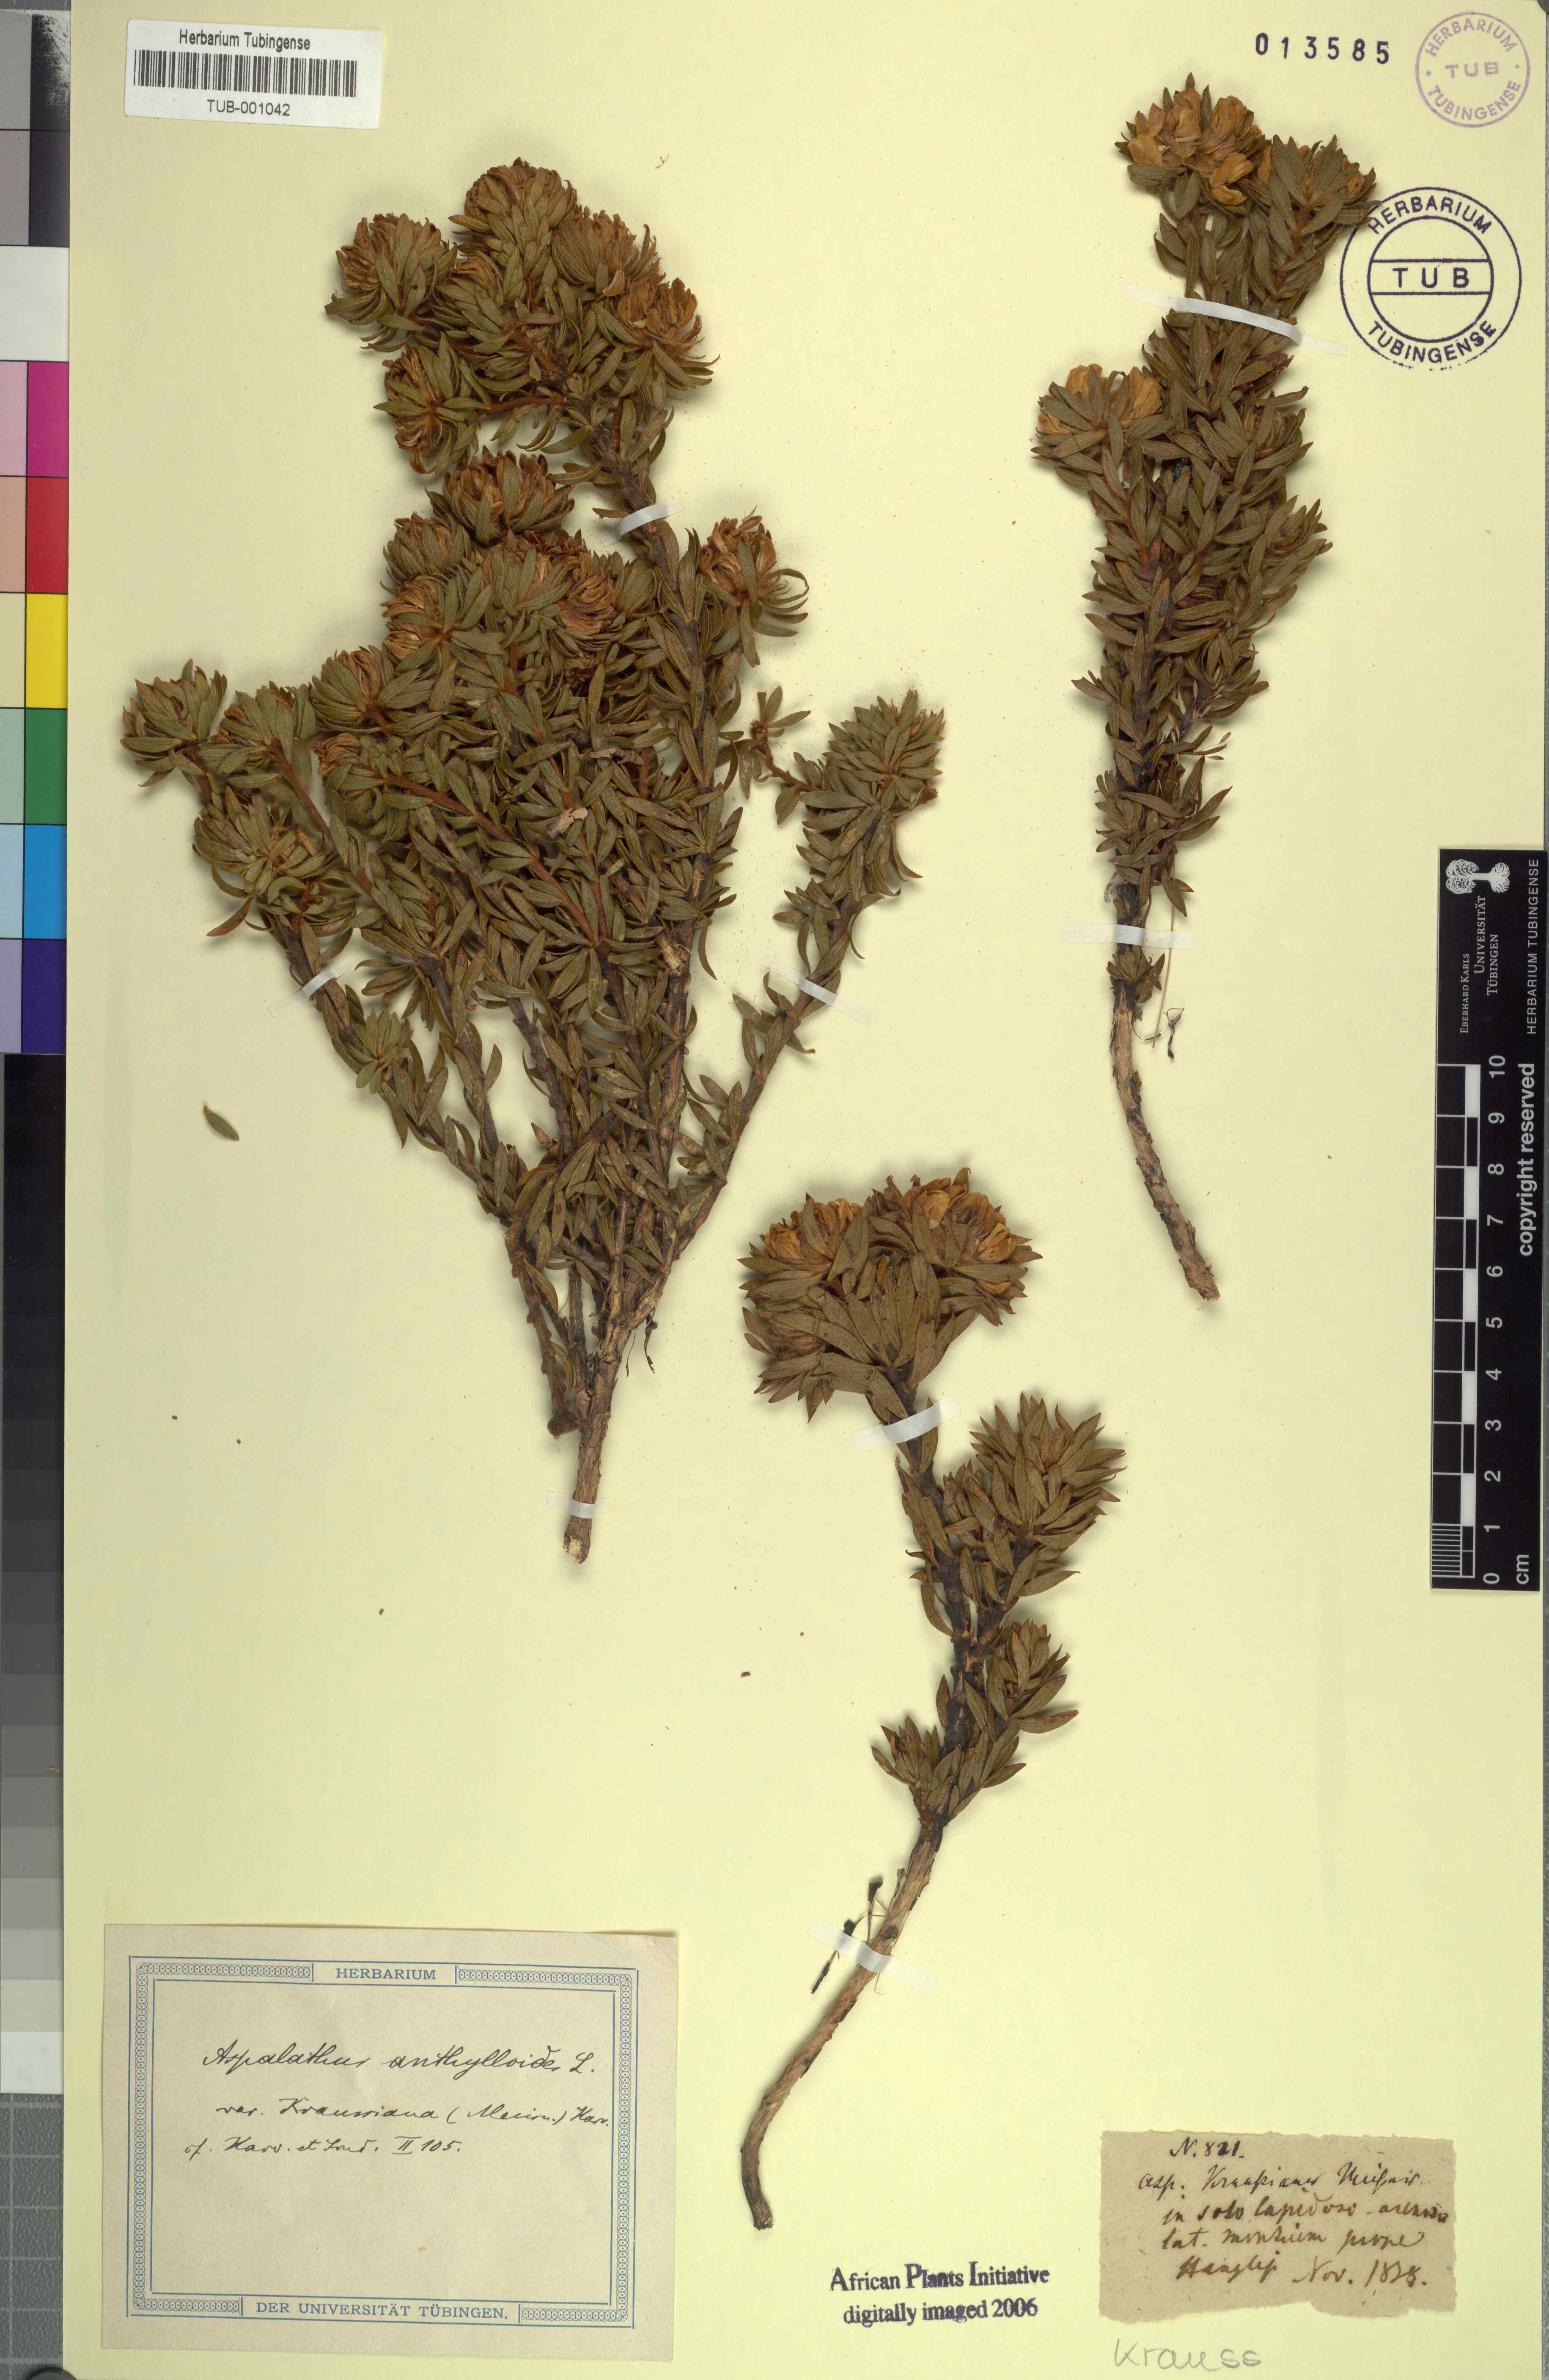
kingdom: Plantae
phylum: Tracheophyta
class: Magnoliopsida
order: Fabales
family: Fabaceae
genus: Aspalathus
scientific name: Aspalathus lotoides
